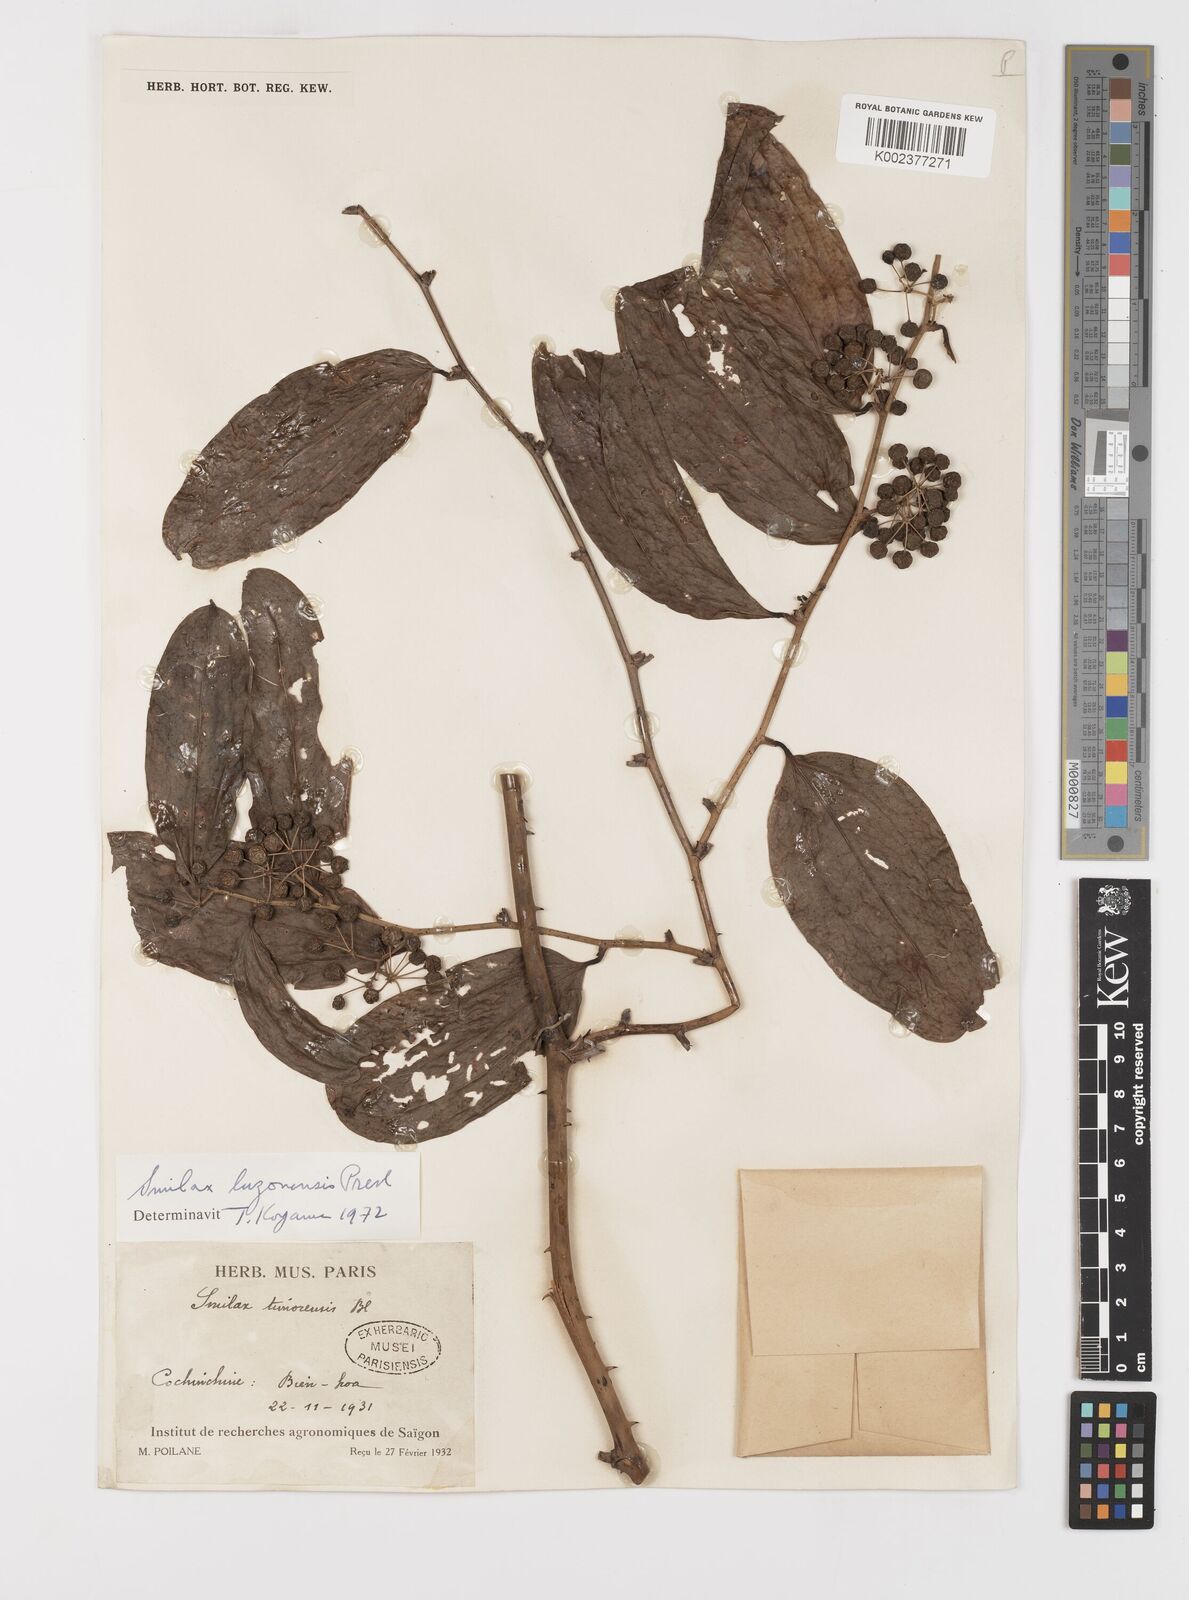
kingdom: Plantae
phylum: Tracheophyta
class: Liliopsida
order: Liliales
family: Smilacaceae
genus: Smilax
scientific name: Smilax luzonensis
